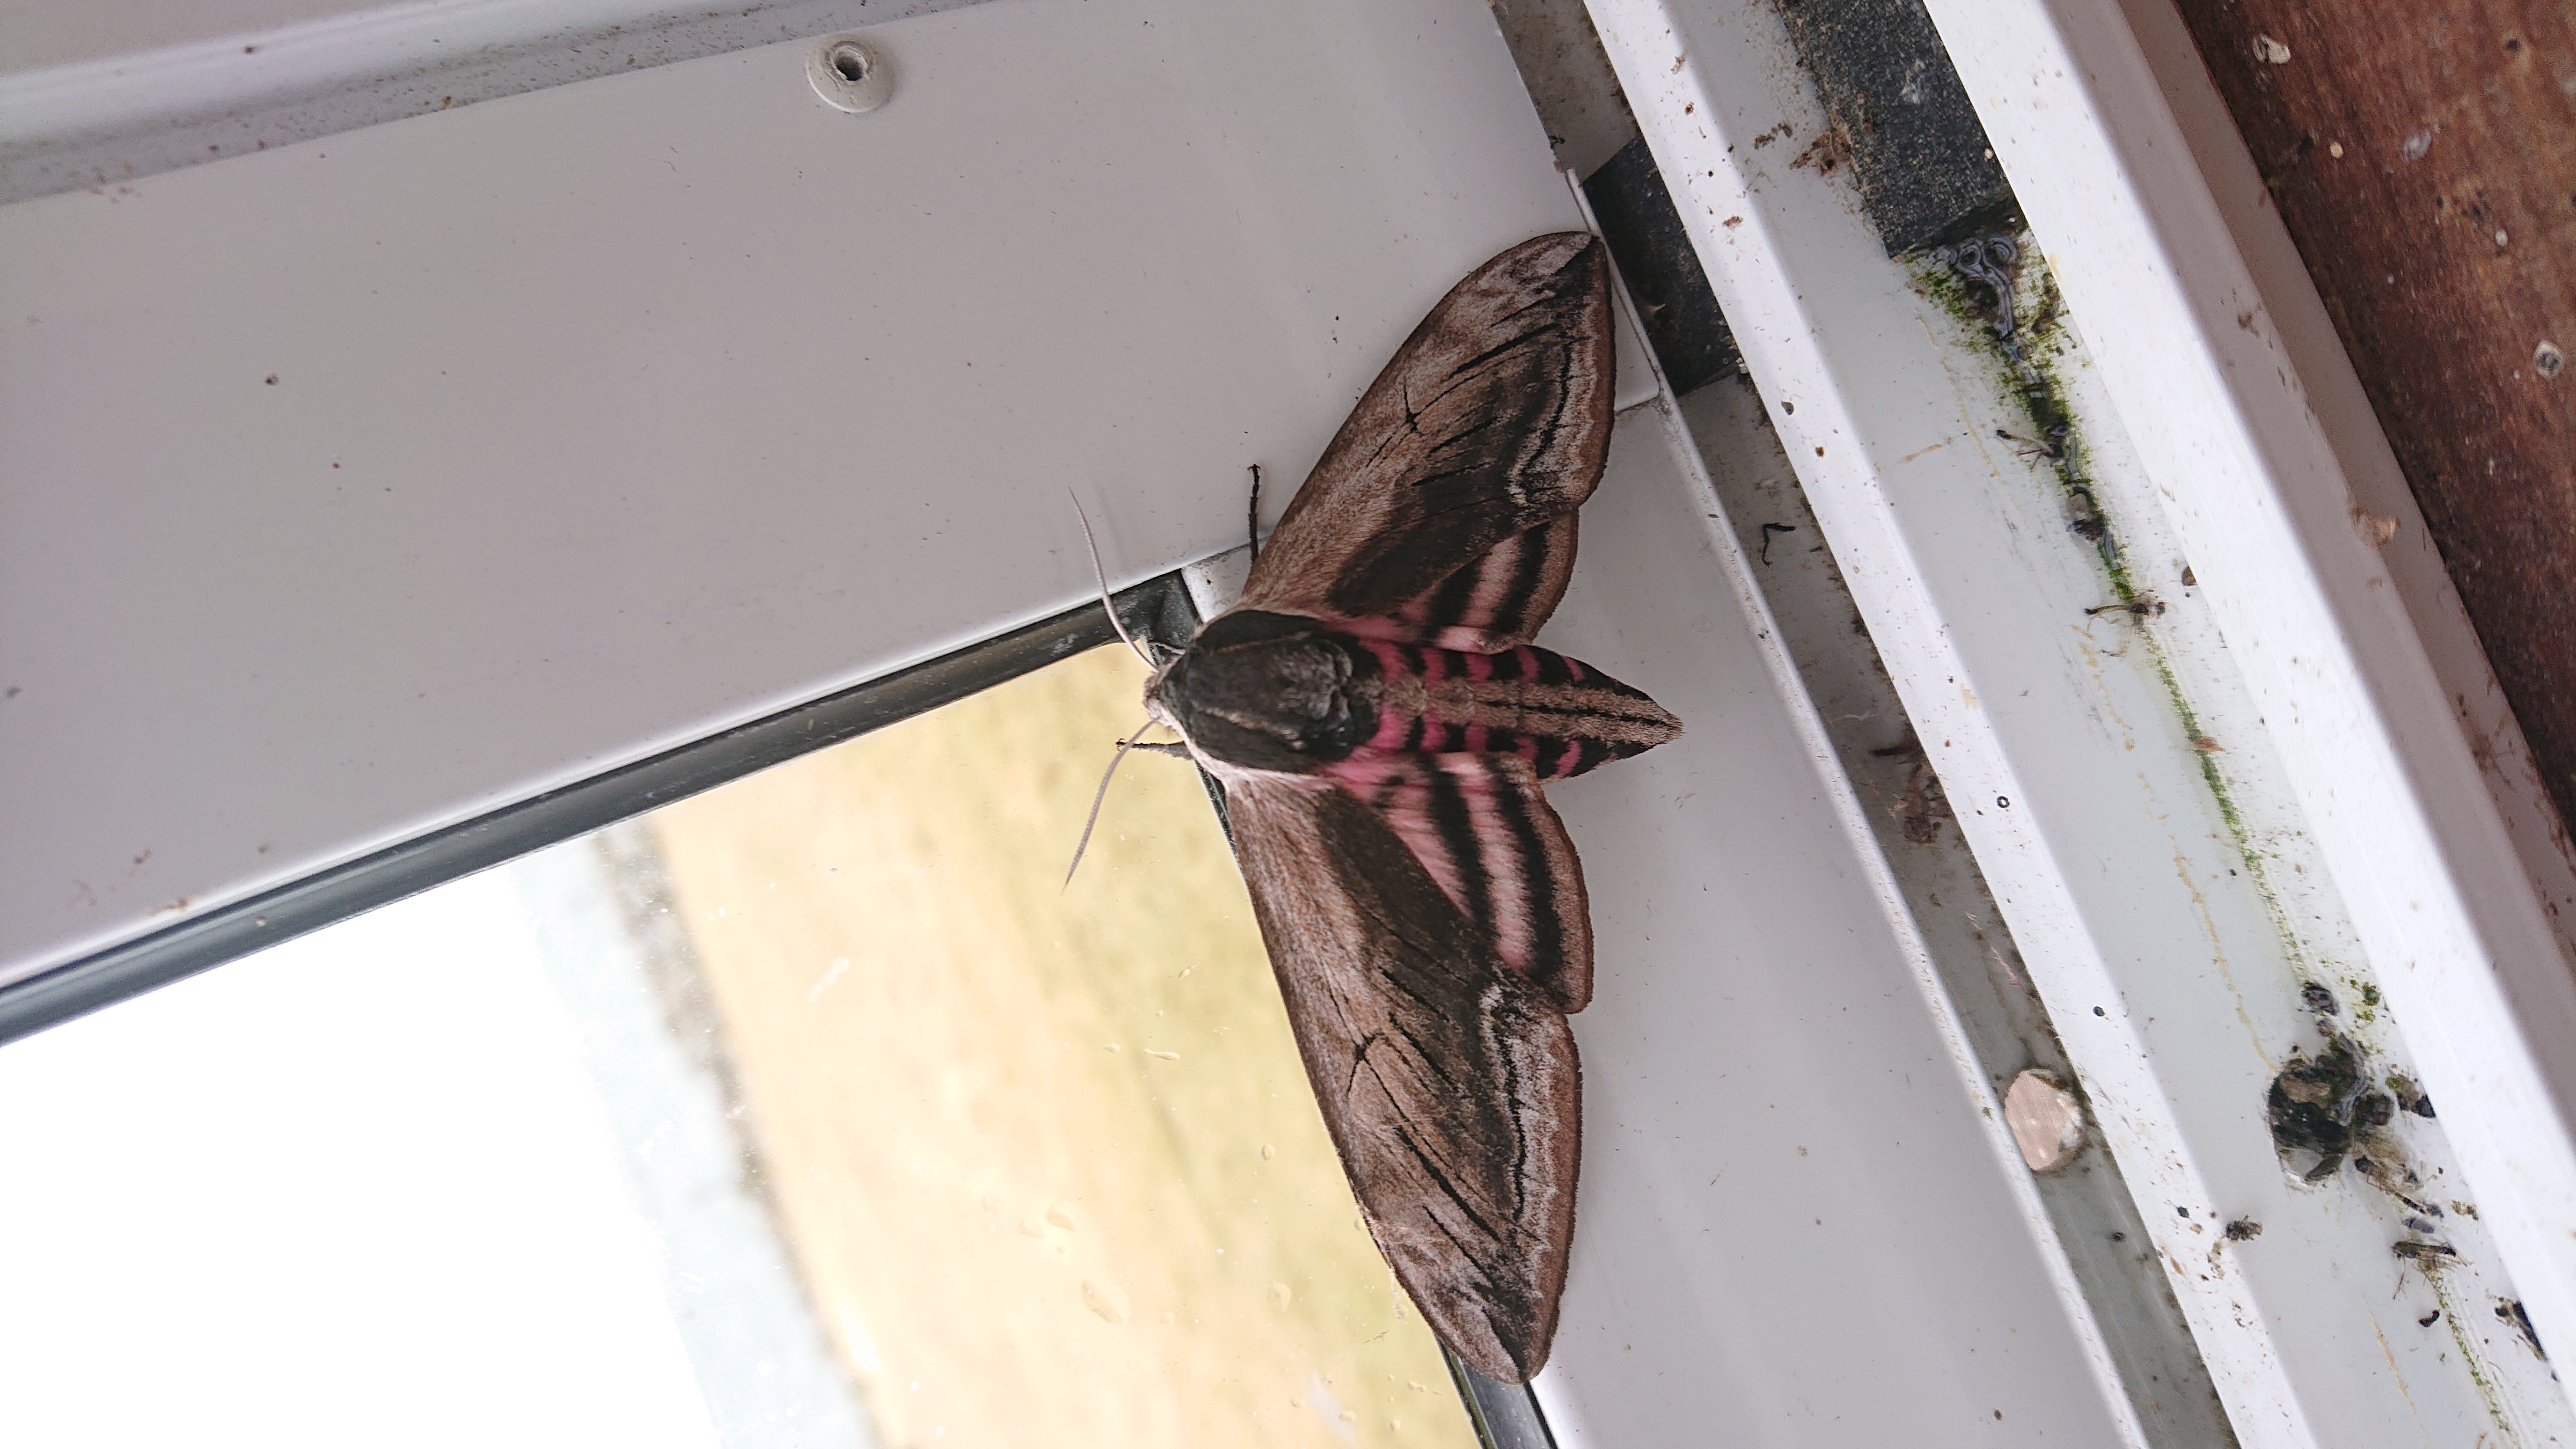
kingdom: Animalia
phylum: Arthropoda
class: Insecta
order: Lepidoptera
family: Sphingidae
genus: Sphinx
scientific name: Sphinx ligustri
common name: Privet hawk-moth
